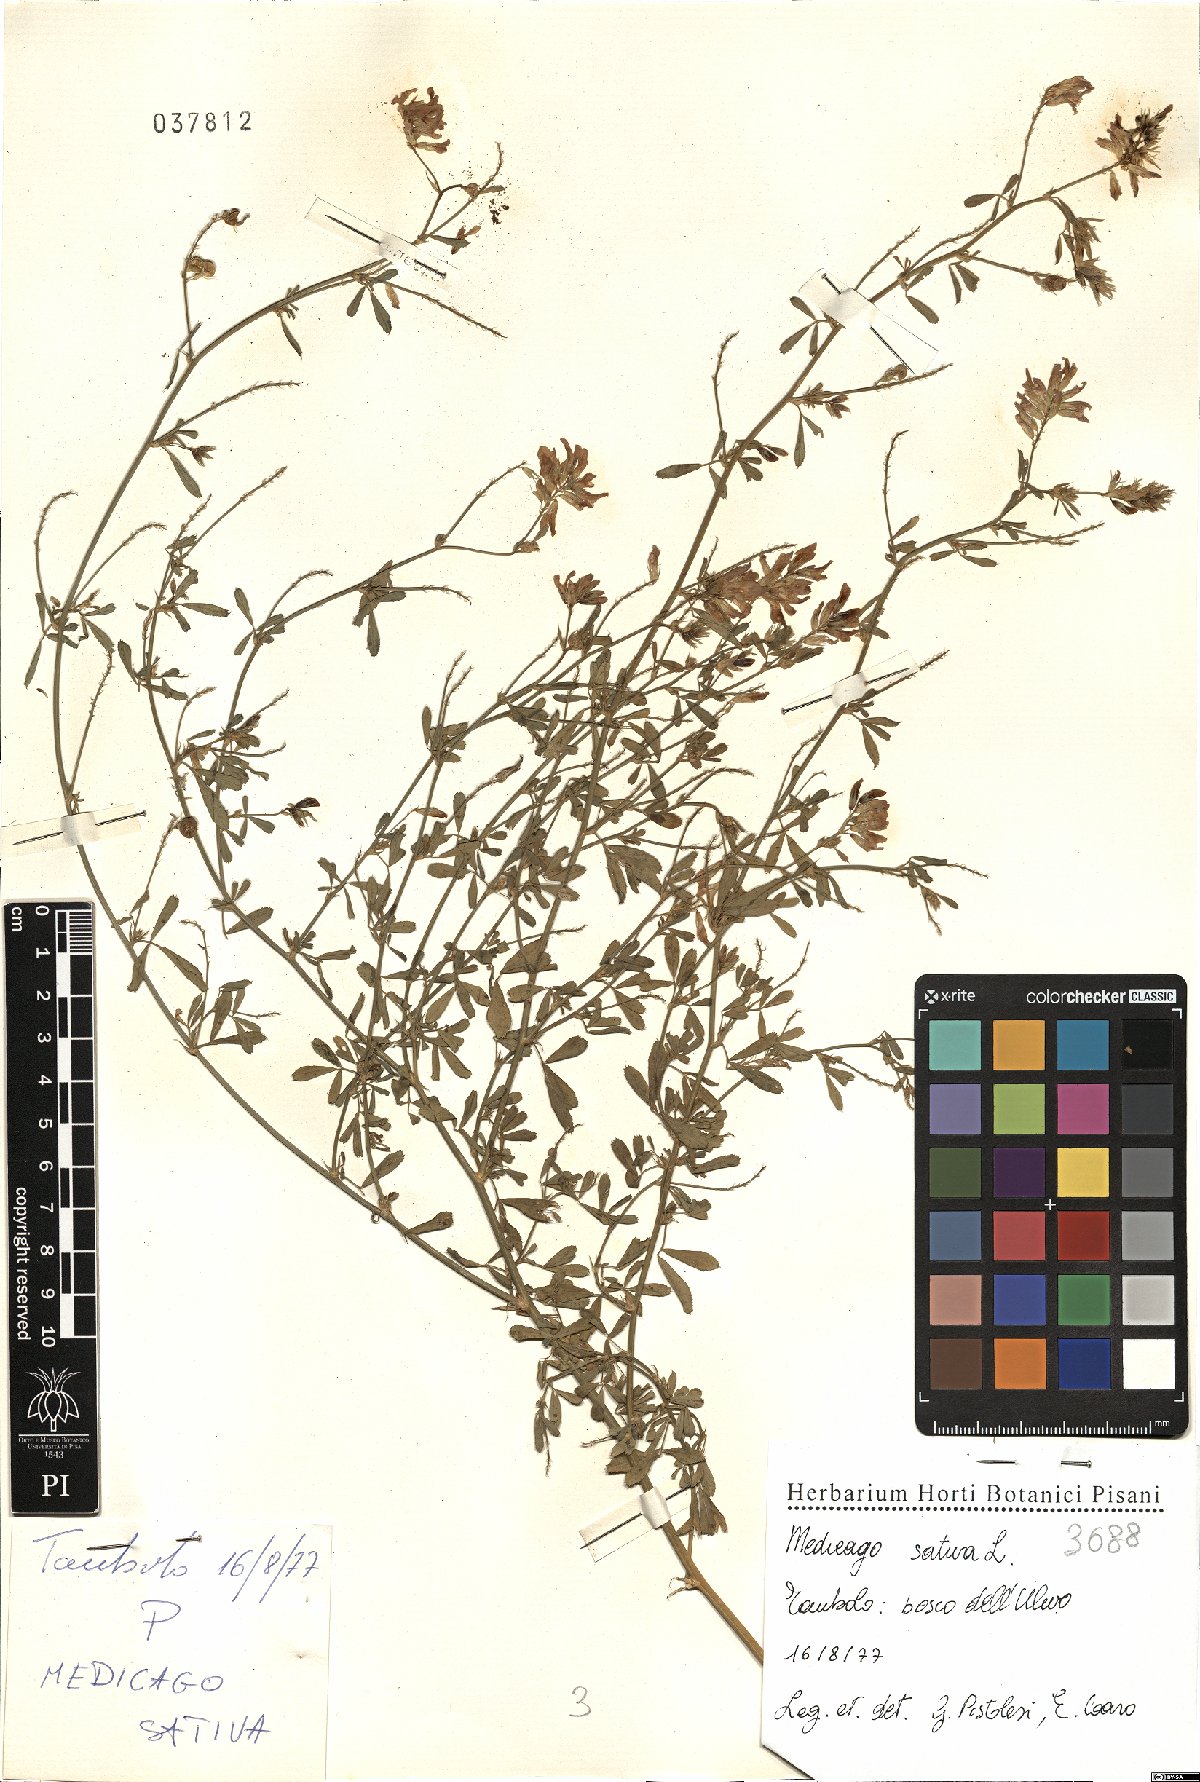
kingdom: Plantae
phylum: Tracheophyta
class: Magnoliopsida
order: Fabales
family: Fabaceae
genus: Medicago
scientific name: Medicago sativa
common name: Alfalfa
